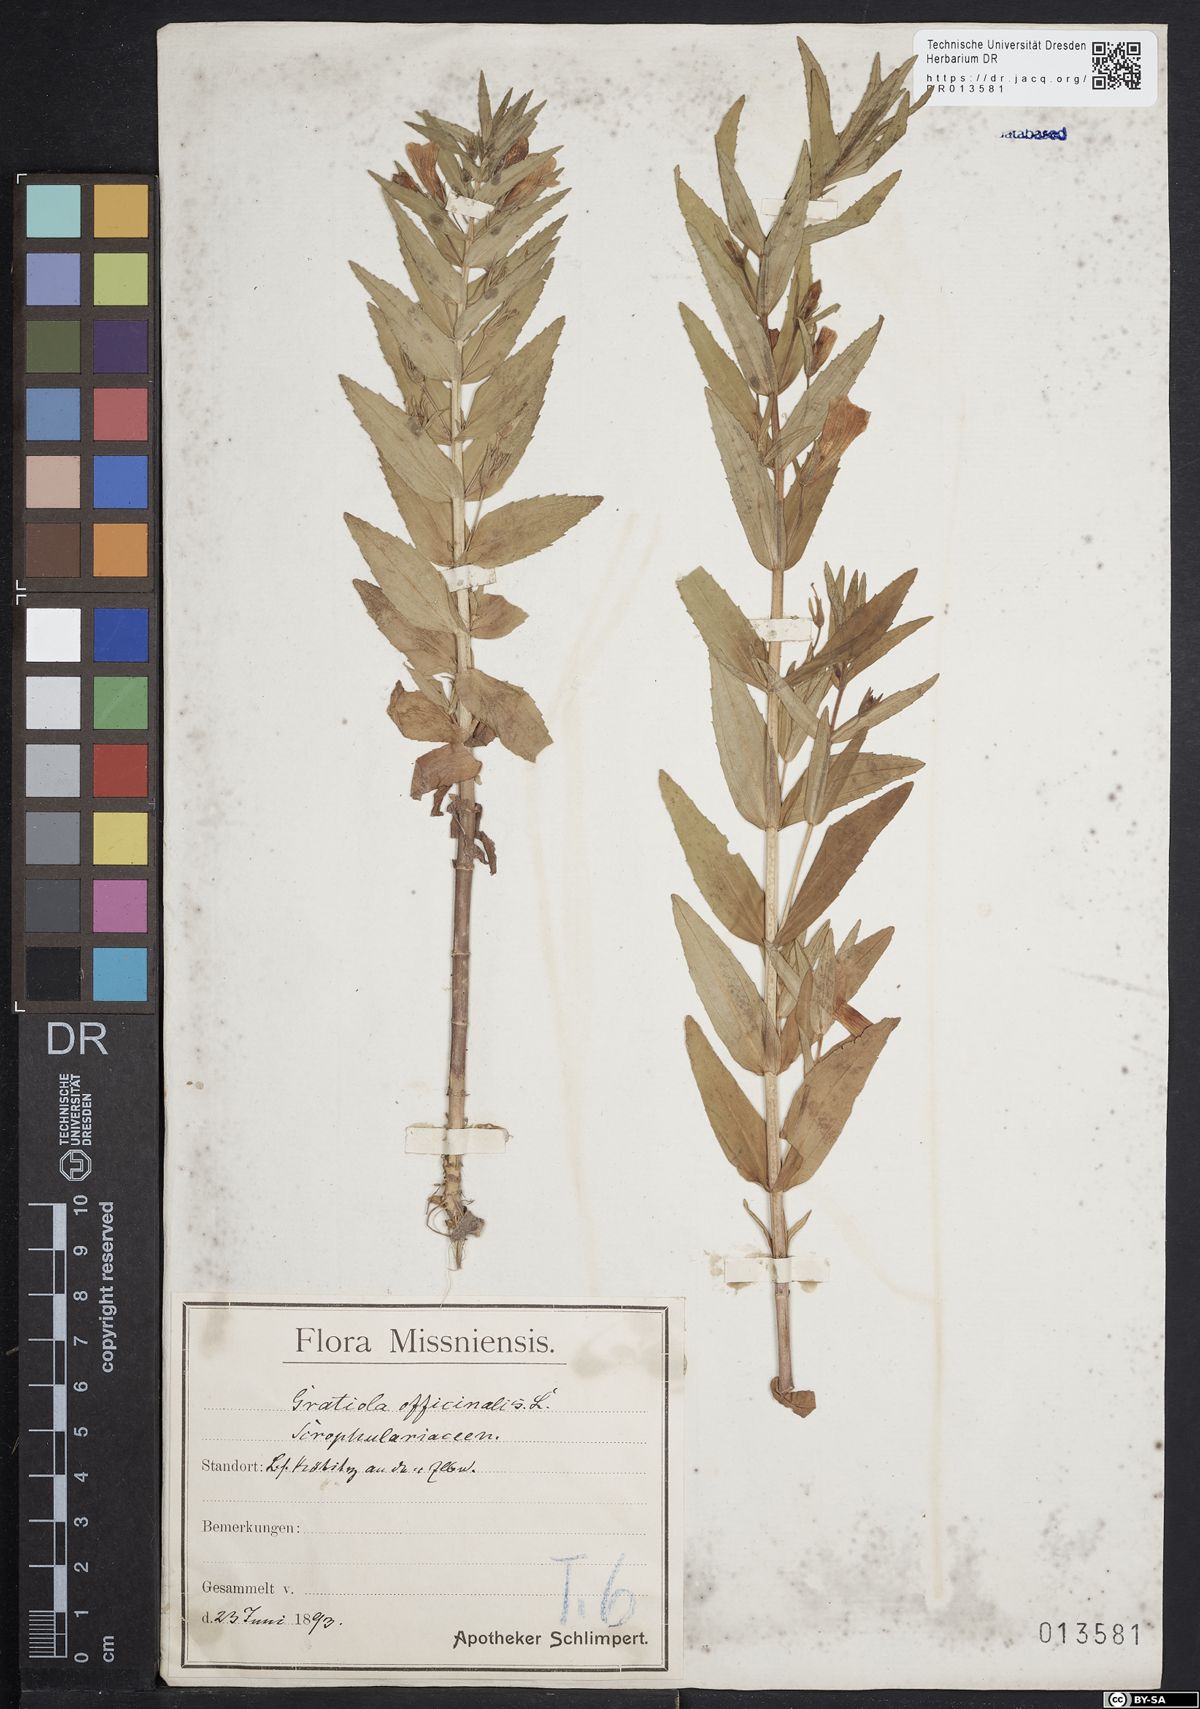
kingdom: Plantae
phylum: Tracheophyta
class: Magnoliopsida
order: Lamiales
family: Plantaginaceae
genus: Gratiola
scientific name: Gratiola officinalis
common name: Gratiola
